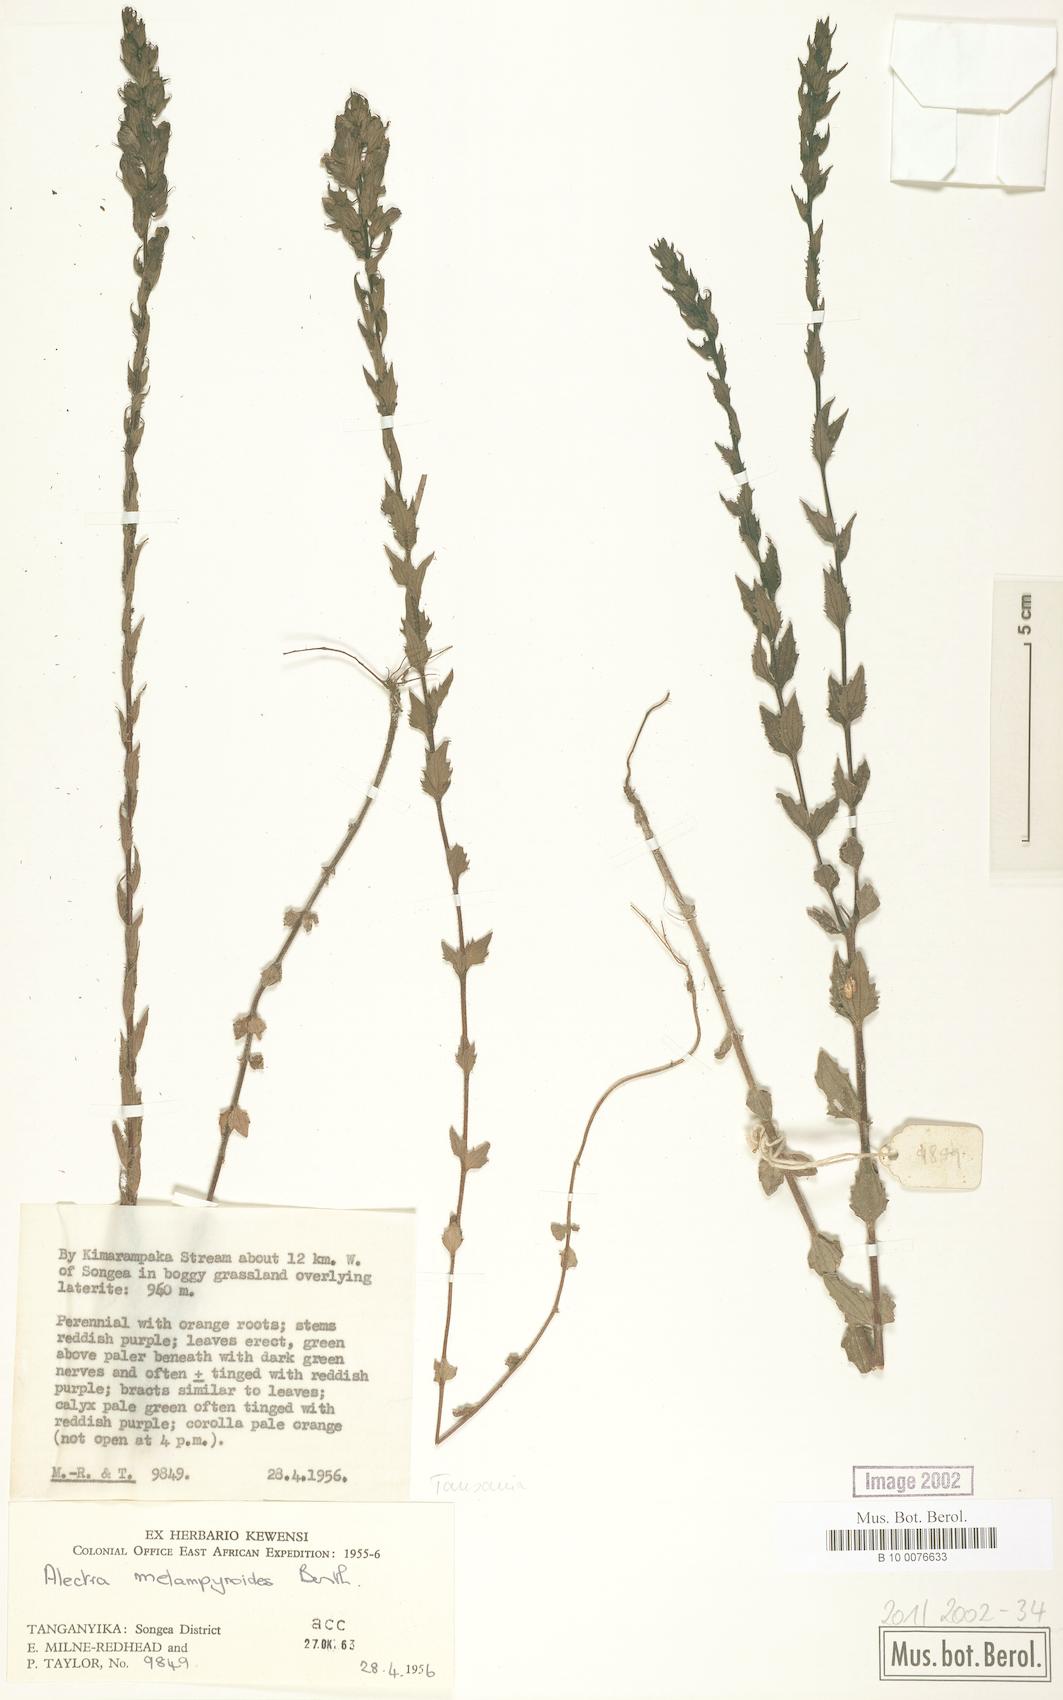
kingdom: Plantae
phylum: Tracheophyta
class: Magnoliopsida
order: Lamiales
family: Orobanchaceae
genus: Alectra
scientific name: Alectra sessiliflora
